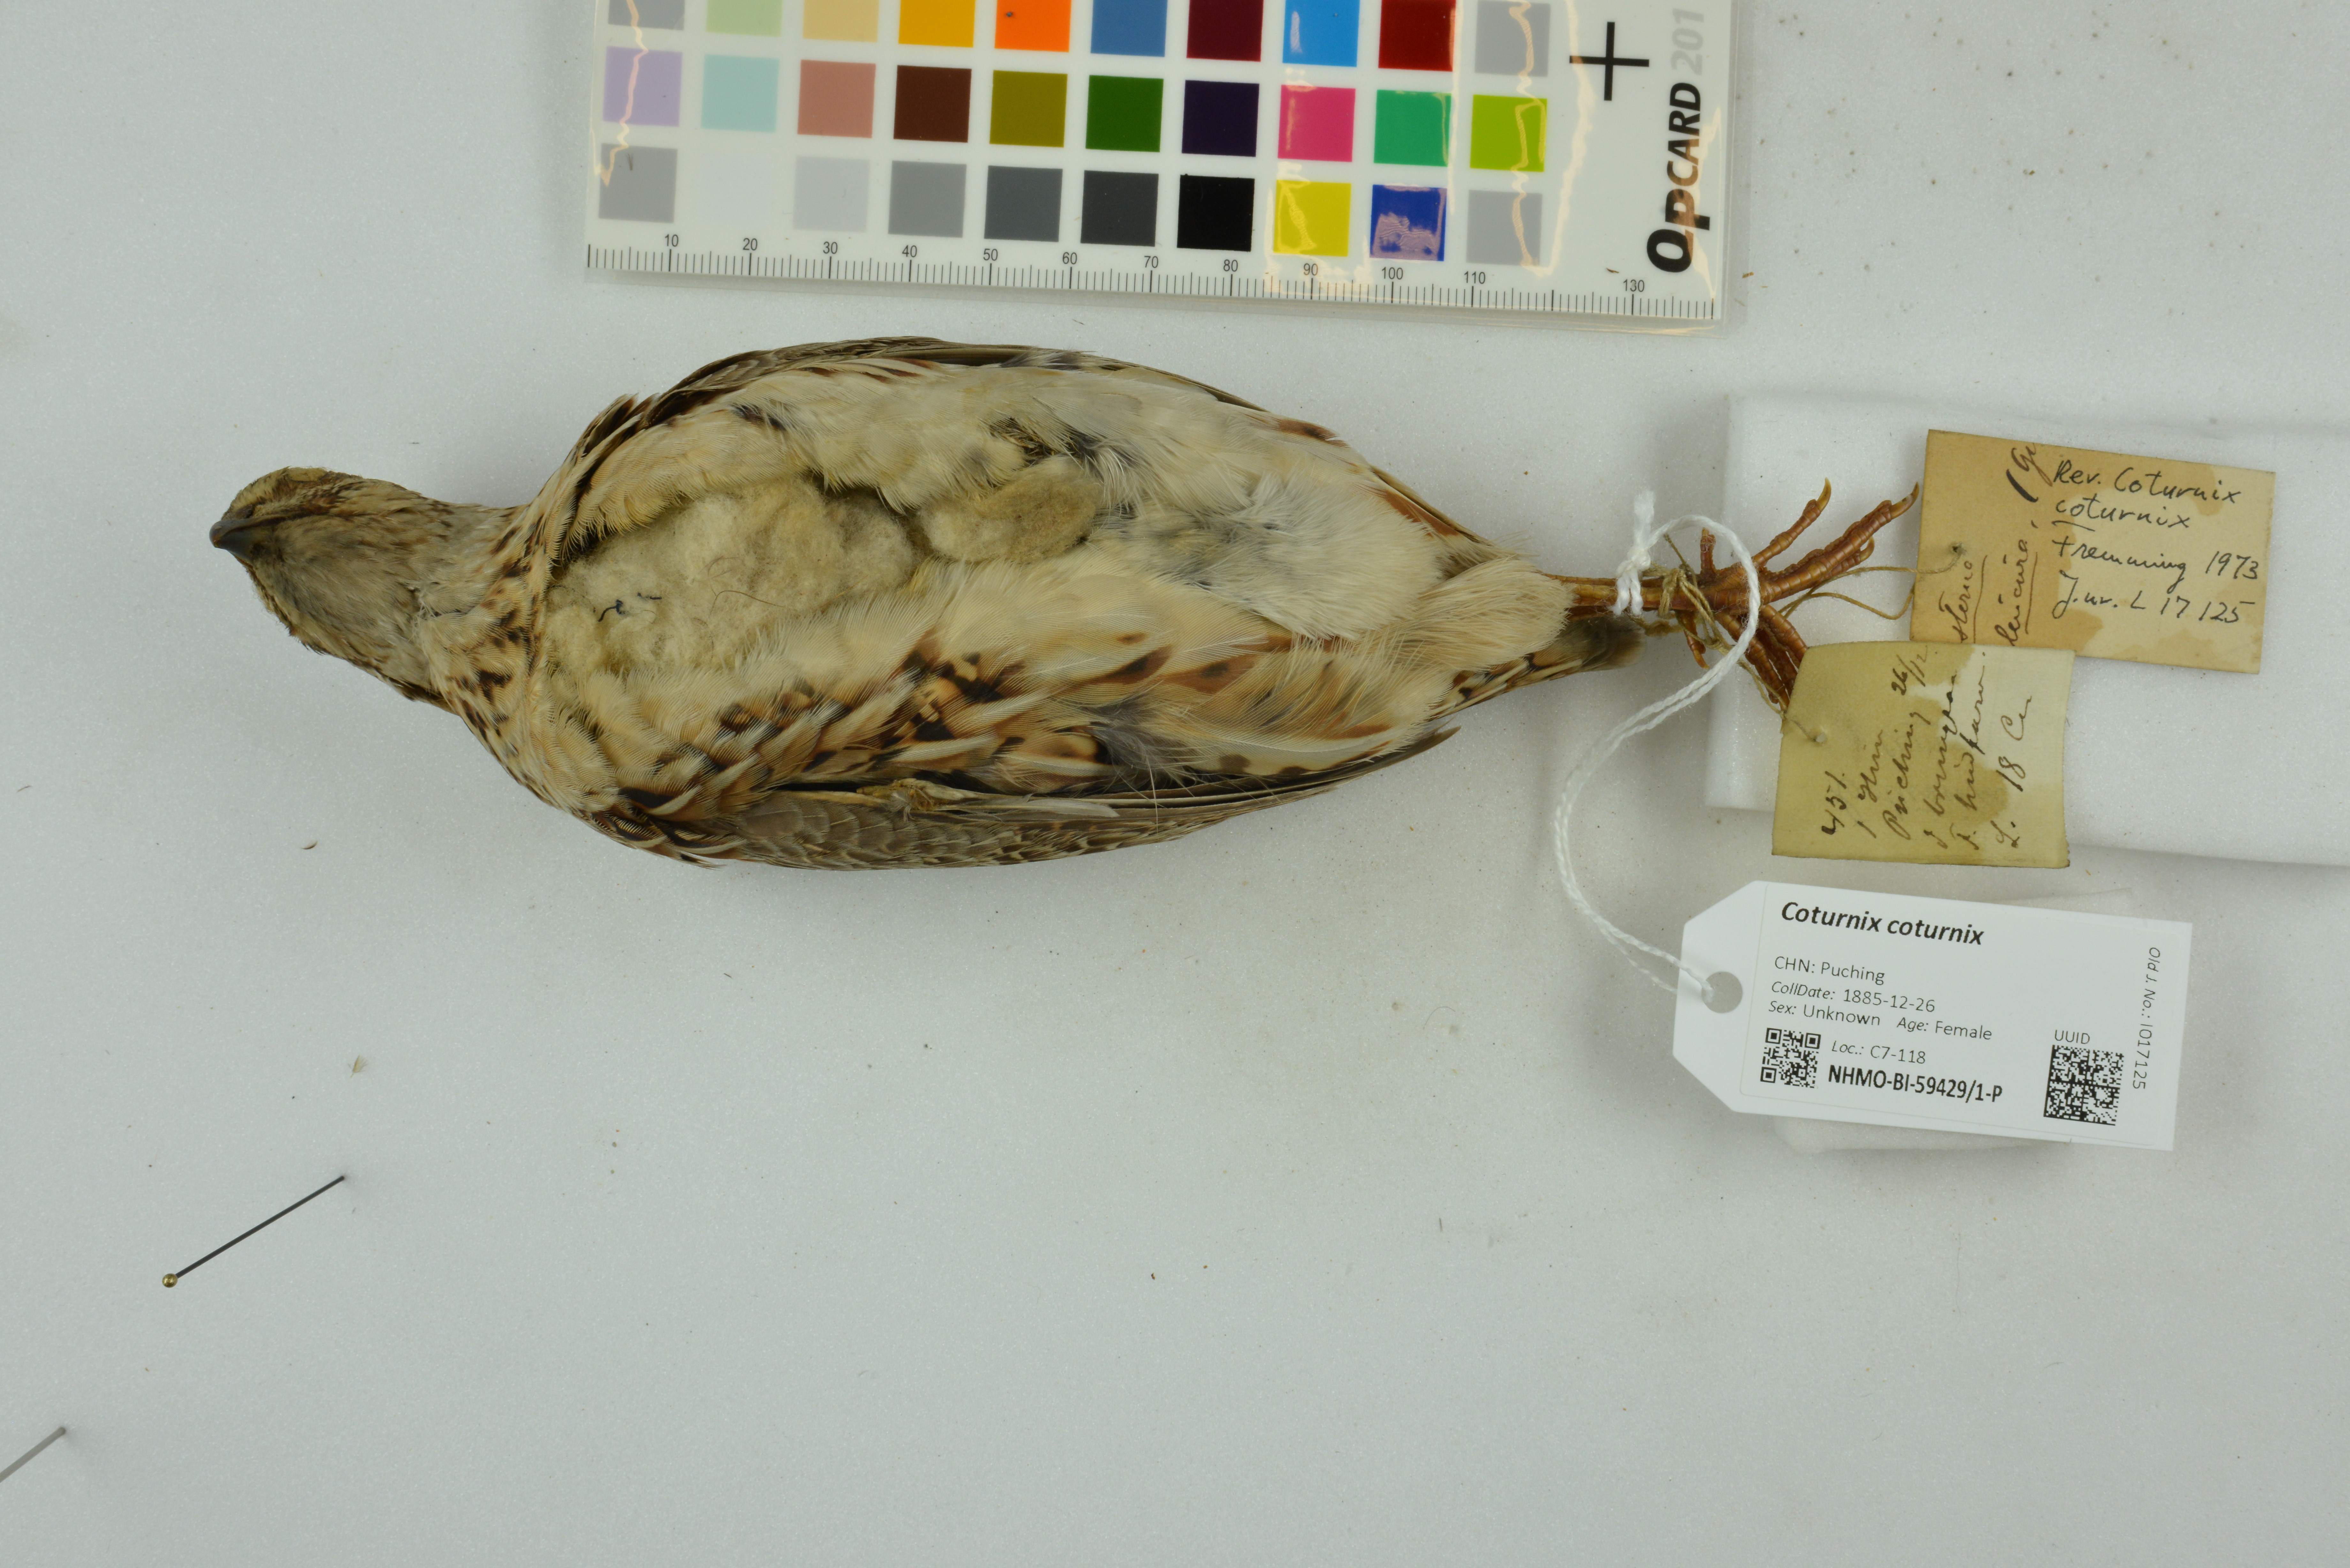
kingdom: Animalia
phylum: Chordata
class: Aves
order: Galliformes
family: Phasianidae
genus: Coturnix
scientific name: Coturnix coturnix
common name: Common quail
